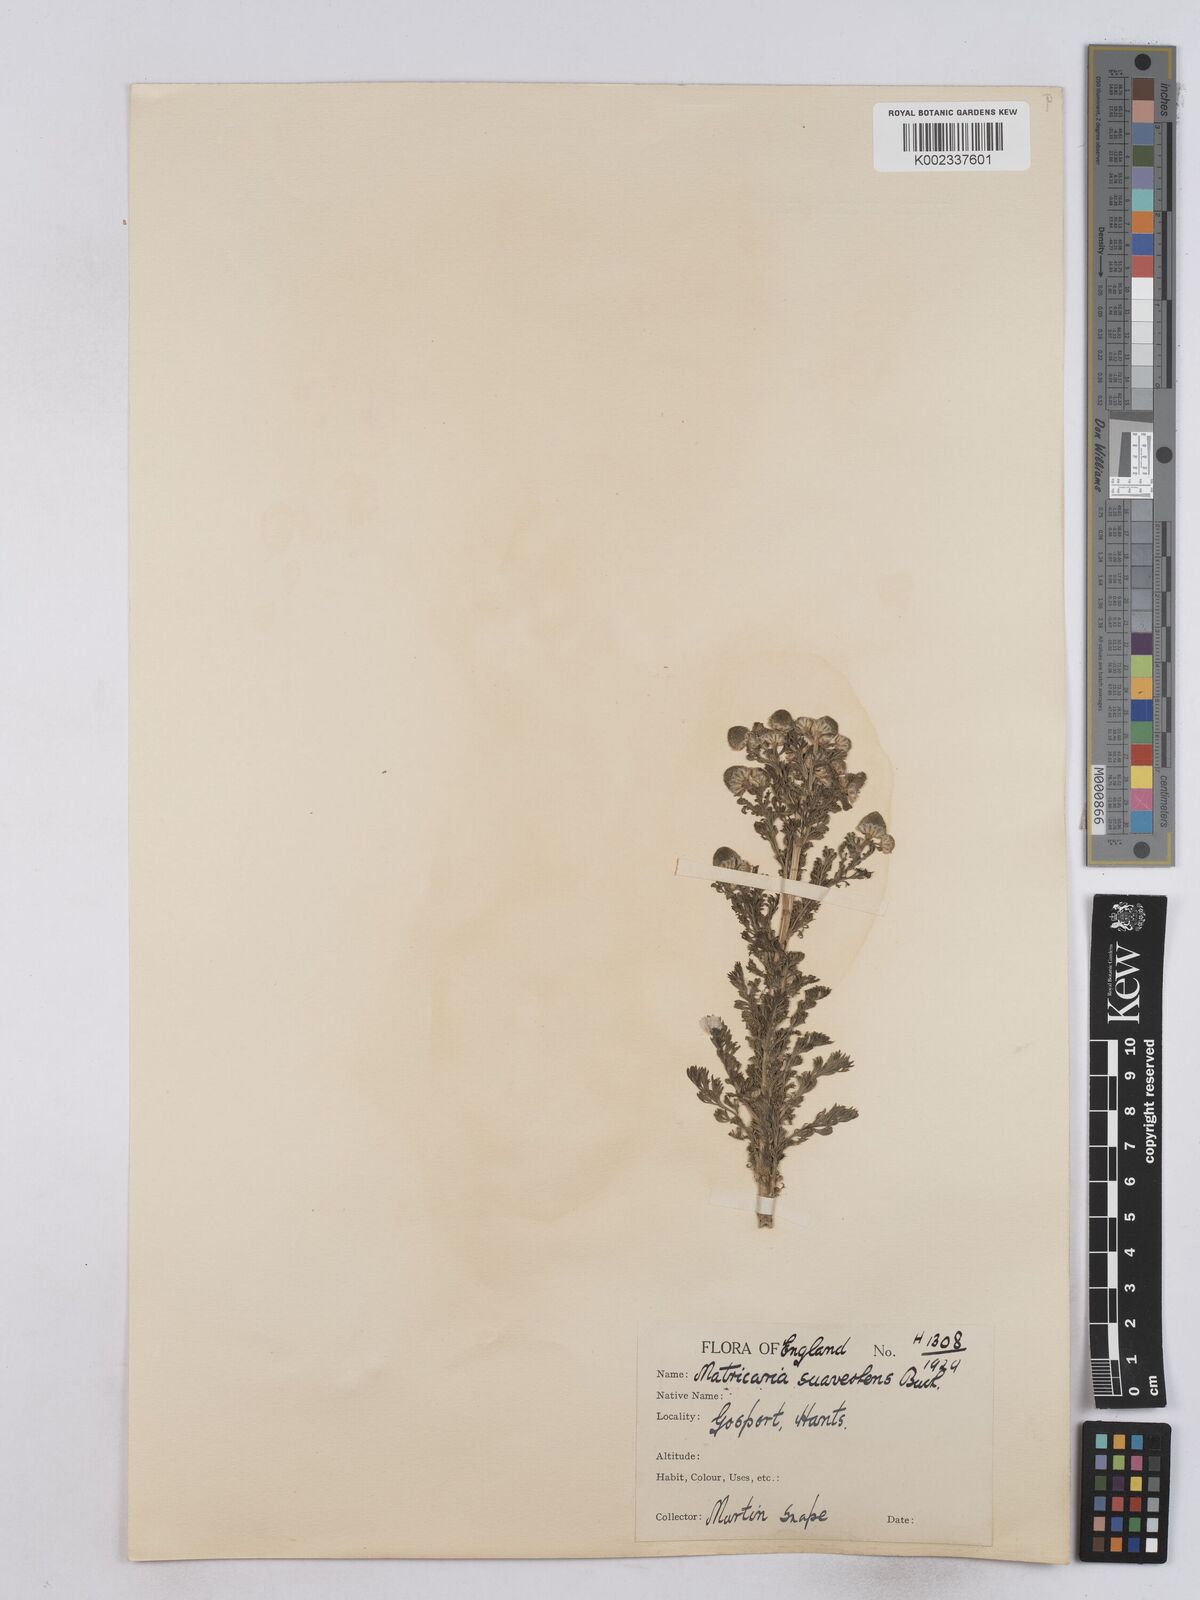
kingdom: Plantae
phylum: Tracheophyta
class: Magnoliopsida
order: Asterales
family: Asteraceae
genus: Matricaria
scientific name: Matricaria discoidea
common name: Disc mayweed
